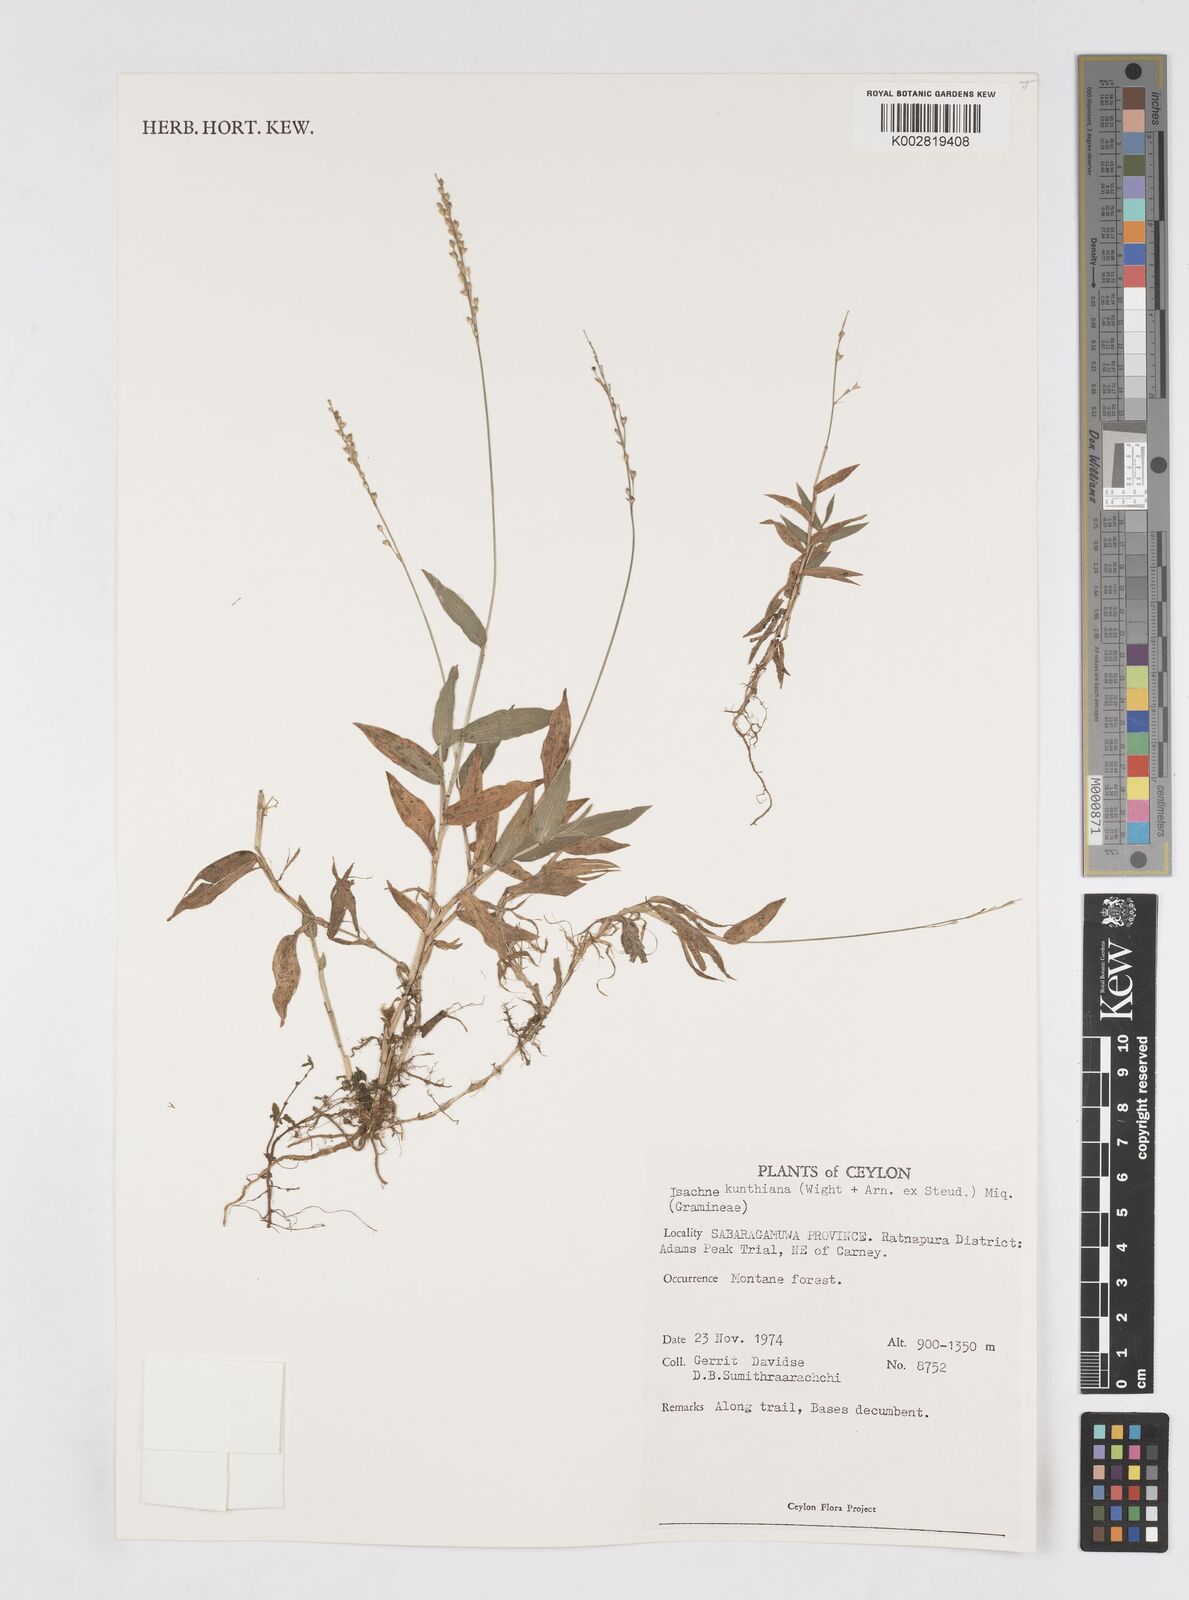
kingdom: Plantae
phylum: Tracheophyta
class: Liliopsida
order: Poales
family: Poaceae
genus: Isachne
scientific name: Isachne kunthiana
